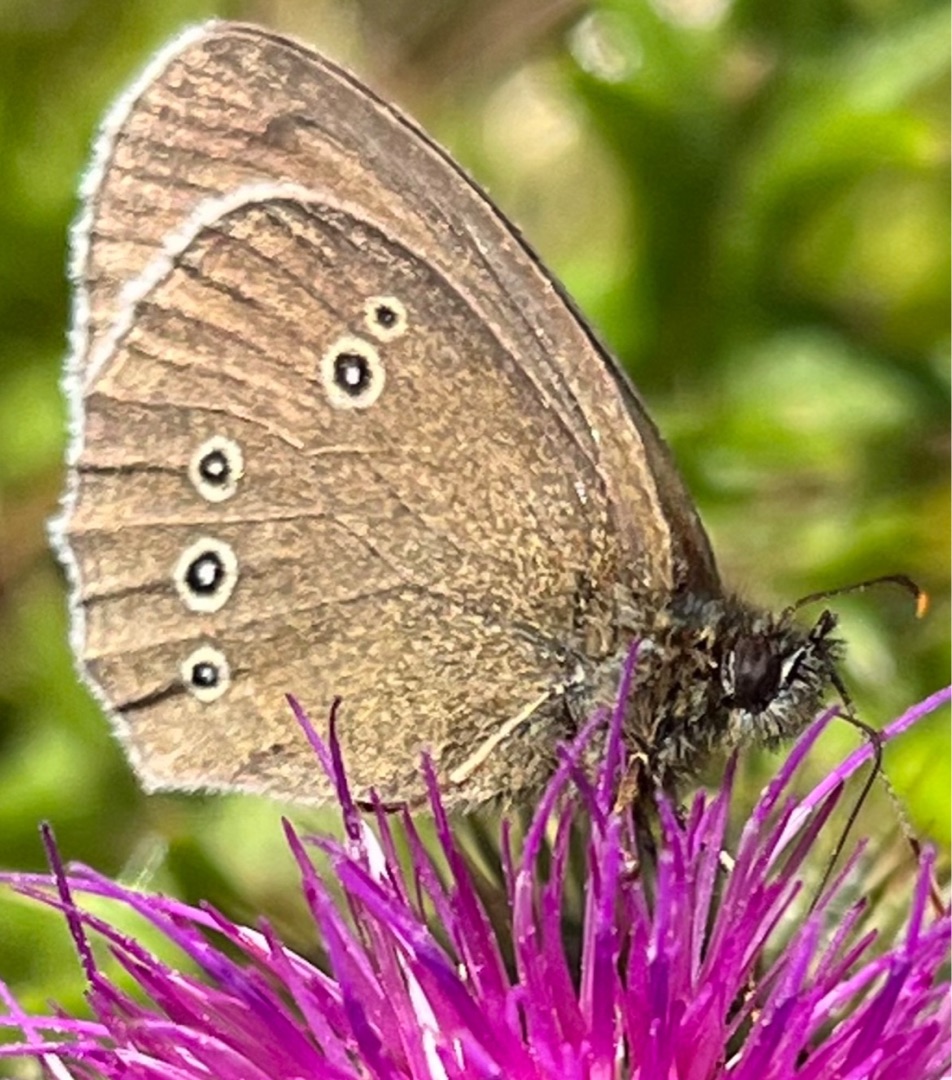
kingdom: Animalia
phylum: Arthropoda
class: Insecta
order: Lepidoptera
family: Nymphalidae
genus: Aphantopus
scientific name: Aphantopus hyperantus
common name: Engrandøje
